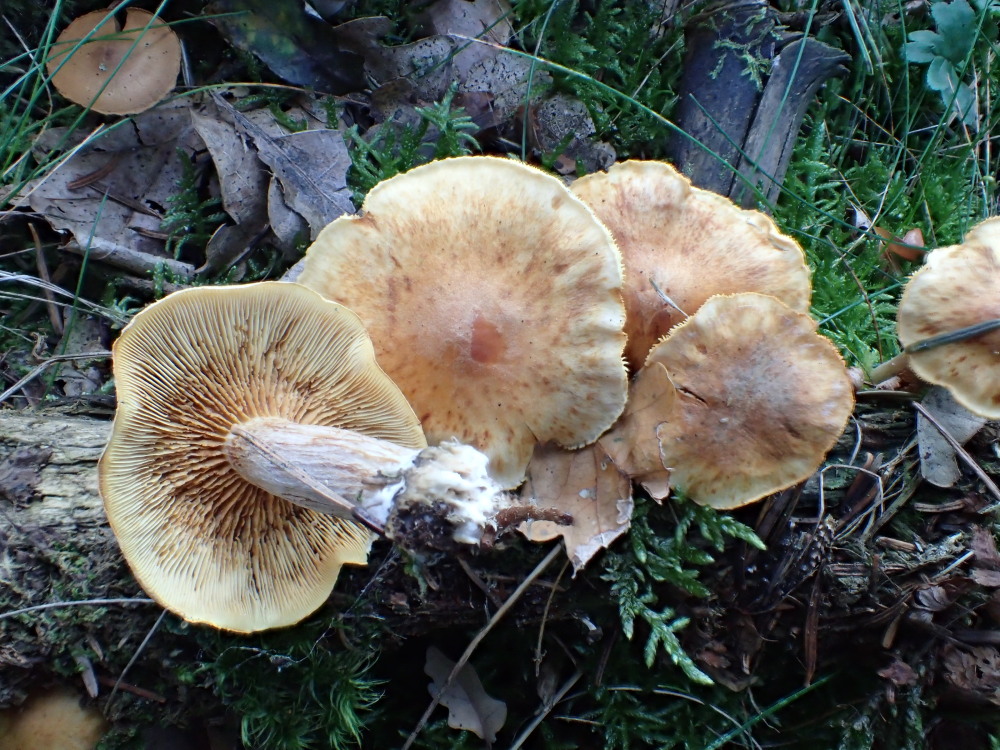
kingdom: Fungi
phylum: Basidiomycota
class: Agaricomycetes
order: Agaricales
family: Hymenogastraceae
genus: Gymnopilus
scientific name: Gymnopilus penetrans
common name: plettet flammehat
